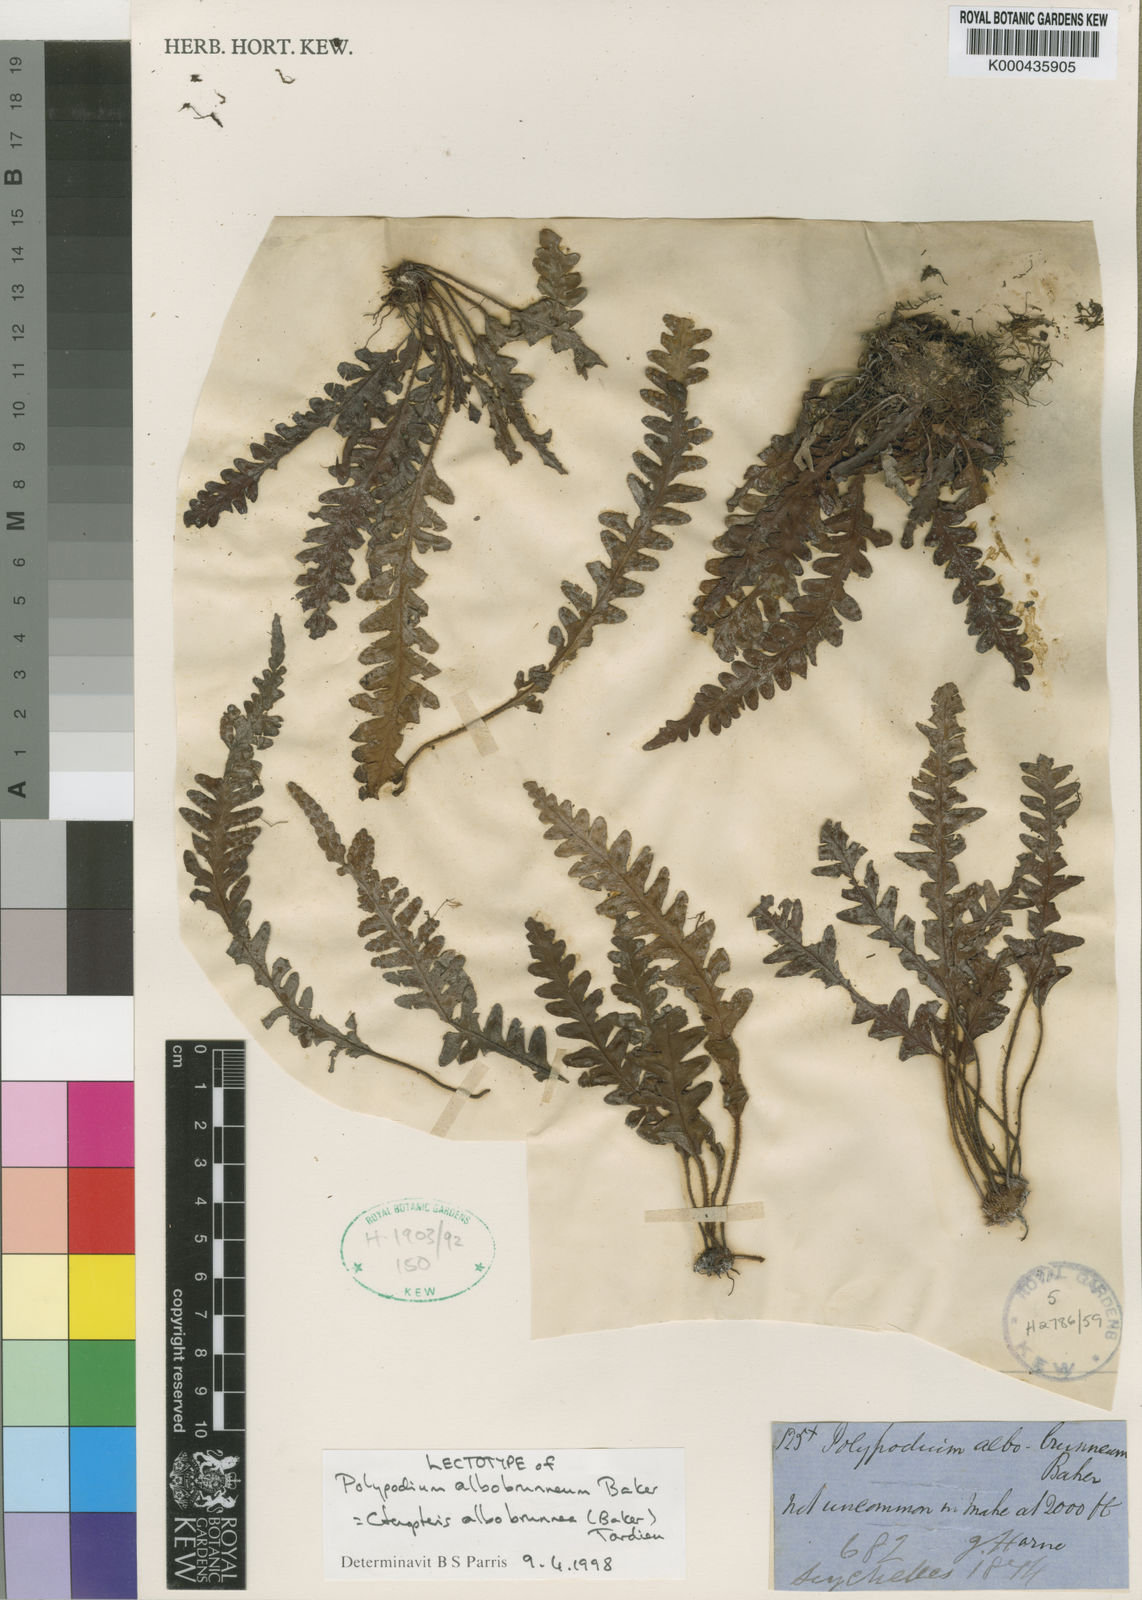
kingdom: Plantae
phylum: Tracheophyta
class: Polypodiopsida
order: Polypodiales
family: Polypodiaceae
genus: Ceradenia
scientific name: Ceradenia sechellarum
